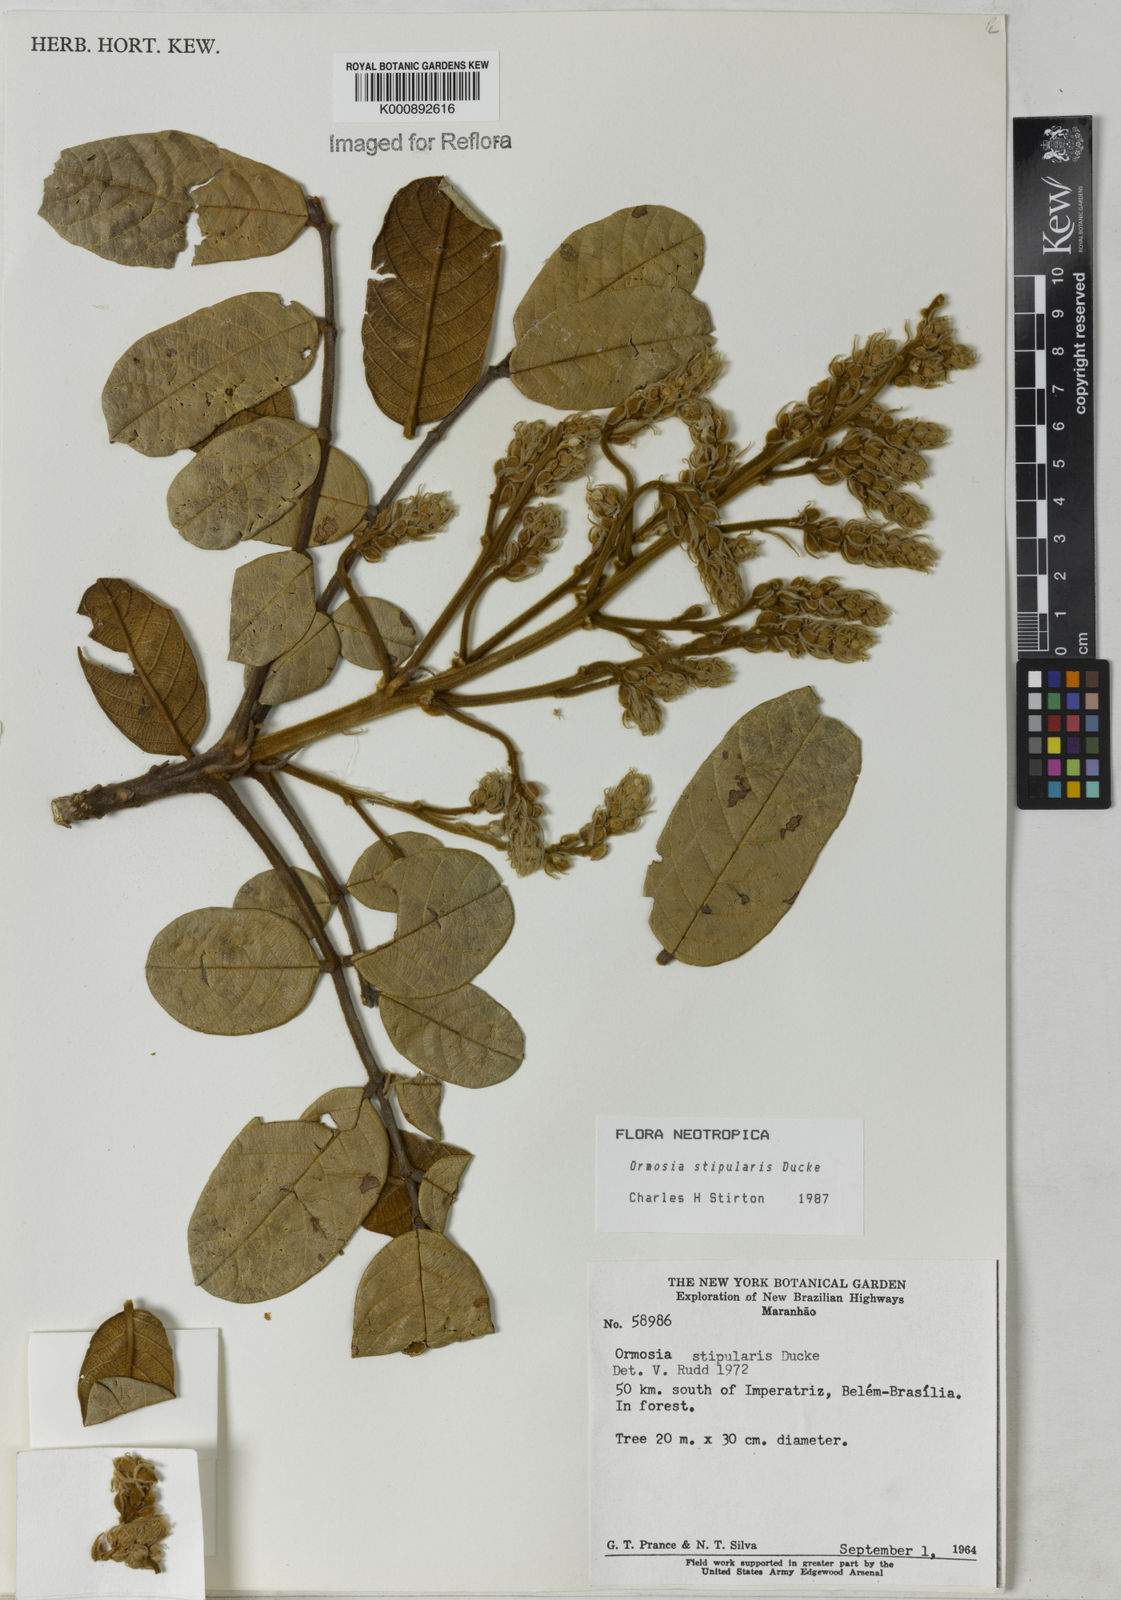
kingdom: Plantae
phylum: Tracheophyta
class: Magnoliopsida
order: Fabales
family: Fabaceae
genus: Ormosia
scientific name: Ormosia stipularis
